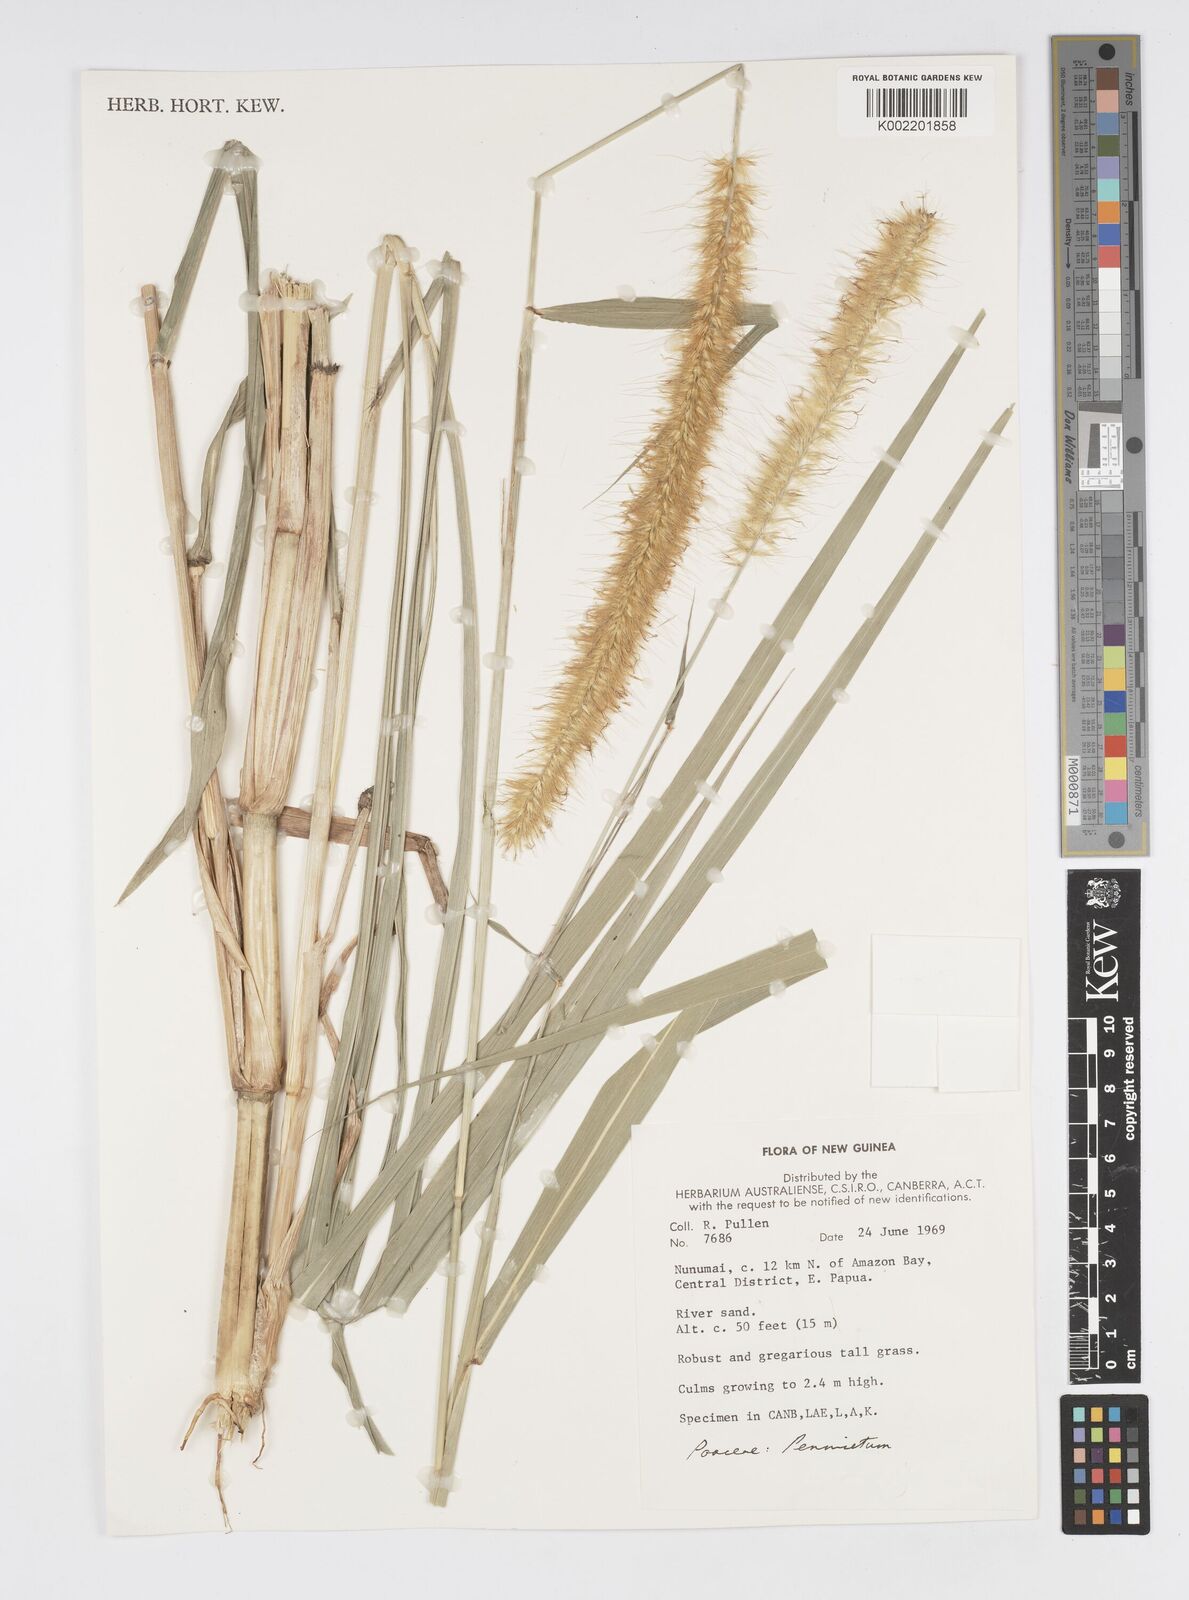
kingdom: Plantae
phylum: Tracheophyta
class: Liliopsida
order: Poales
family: Poaceae
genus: Cenchrus
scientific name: Cenchrus purpureus
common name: Elephant grass
